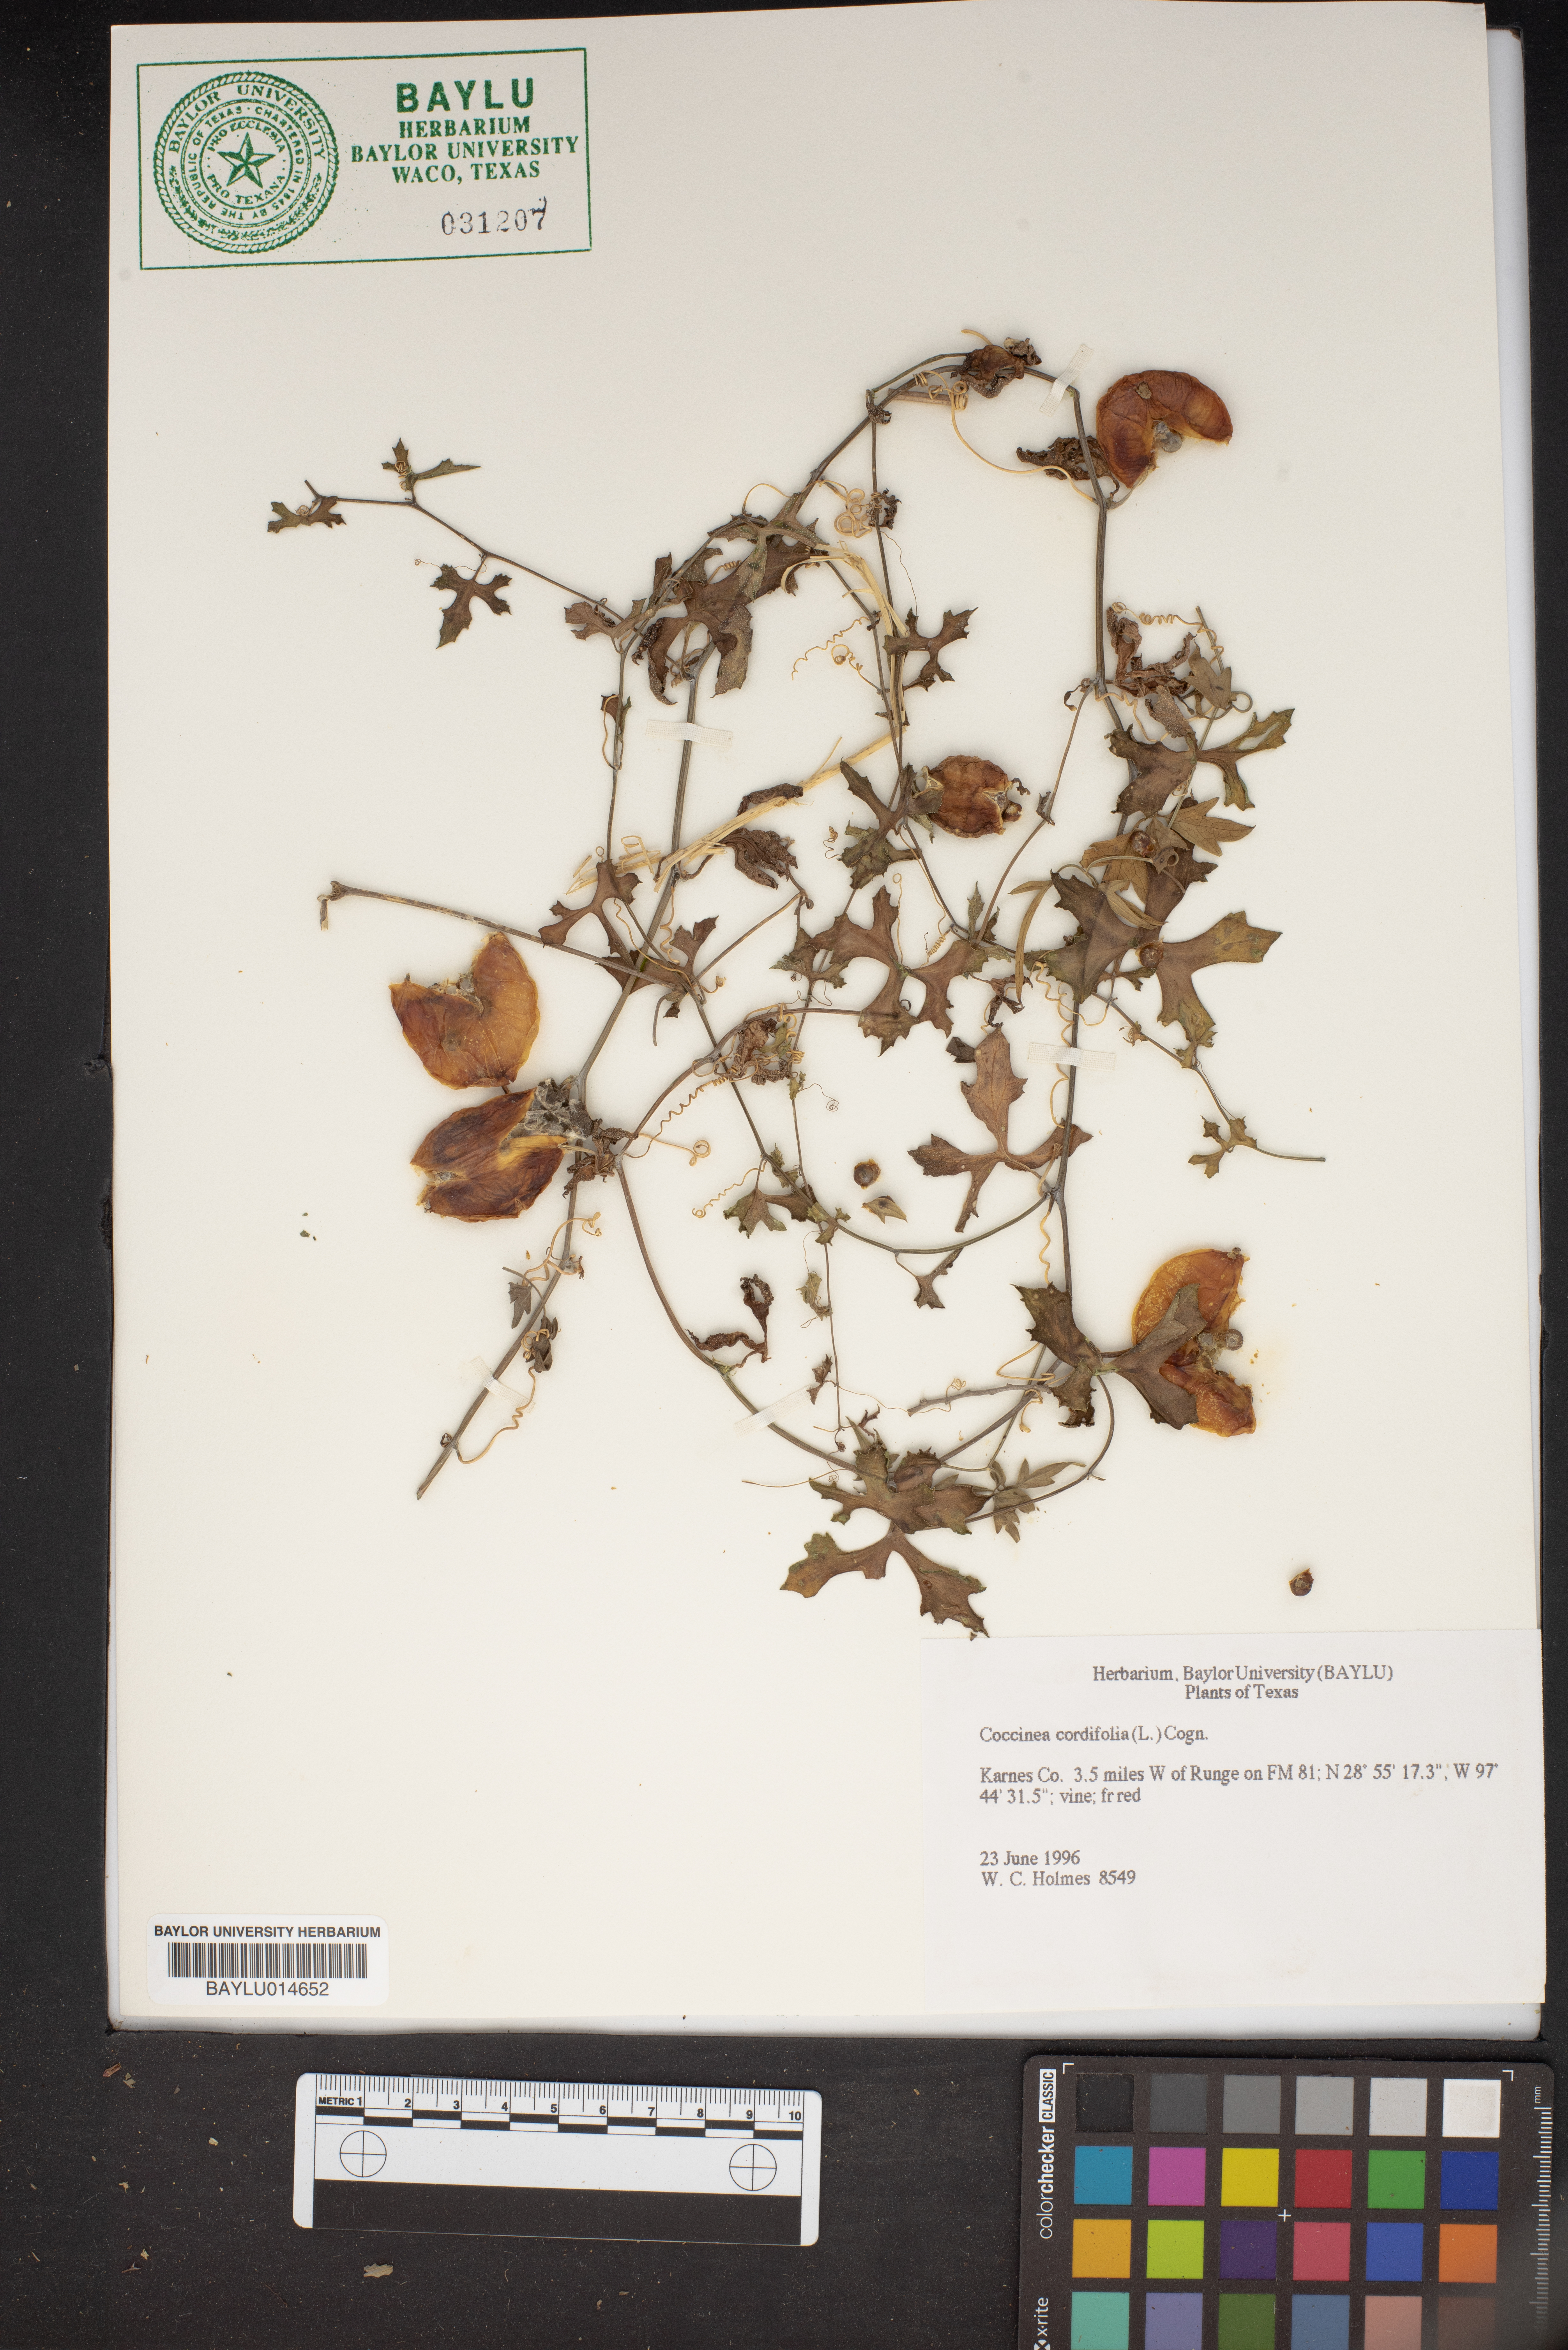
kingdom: Plantae
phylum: Tracheophyta
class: Magnoliopsida
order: Cucurbitales
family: Cucurbitaceae
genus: Cucumis
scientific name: Cucumis maderaspatanus
